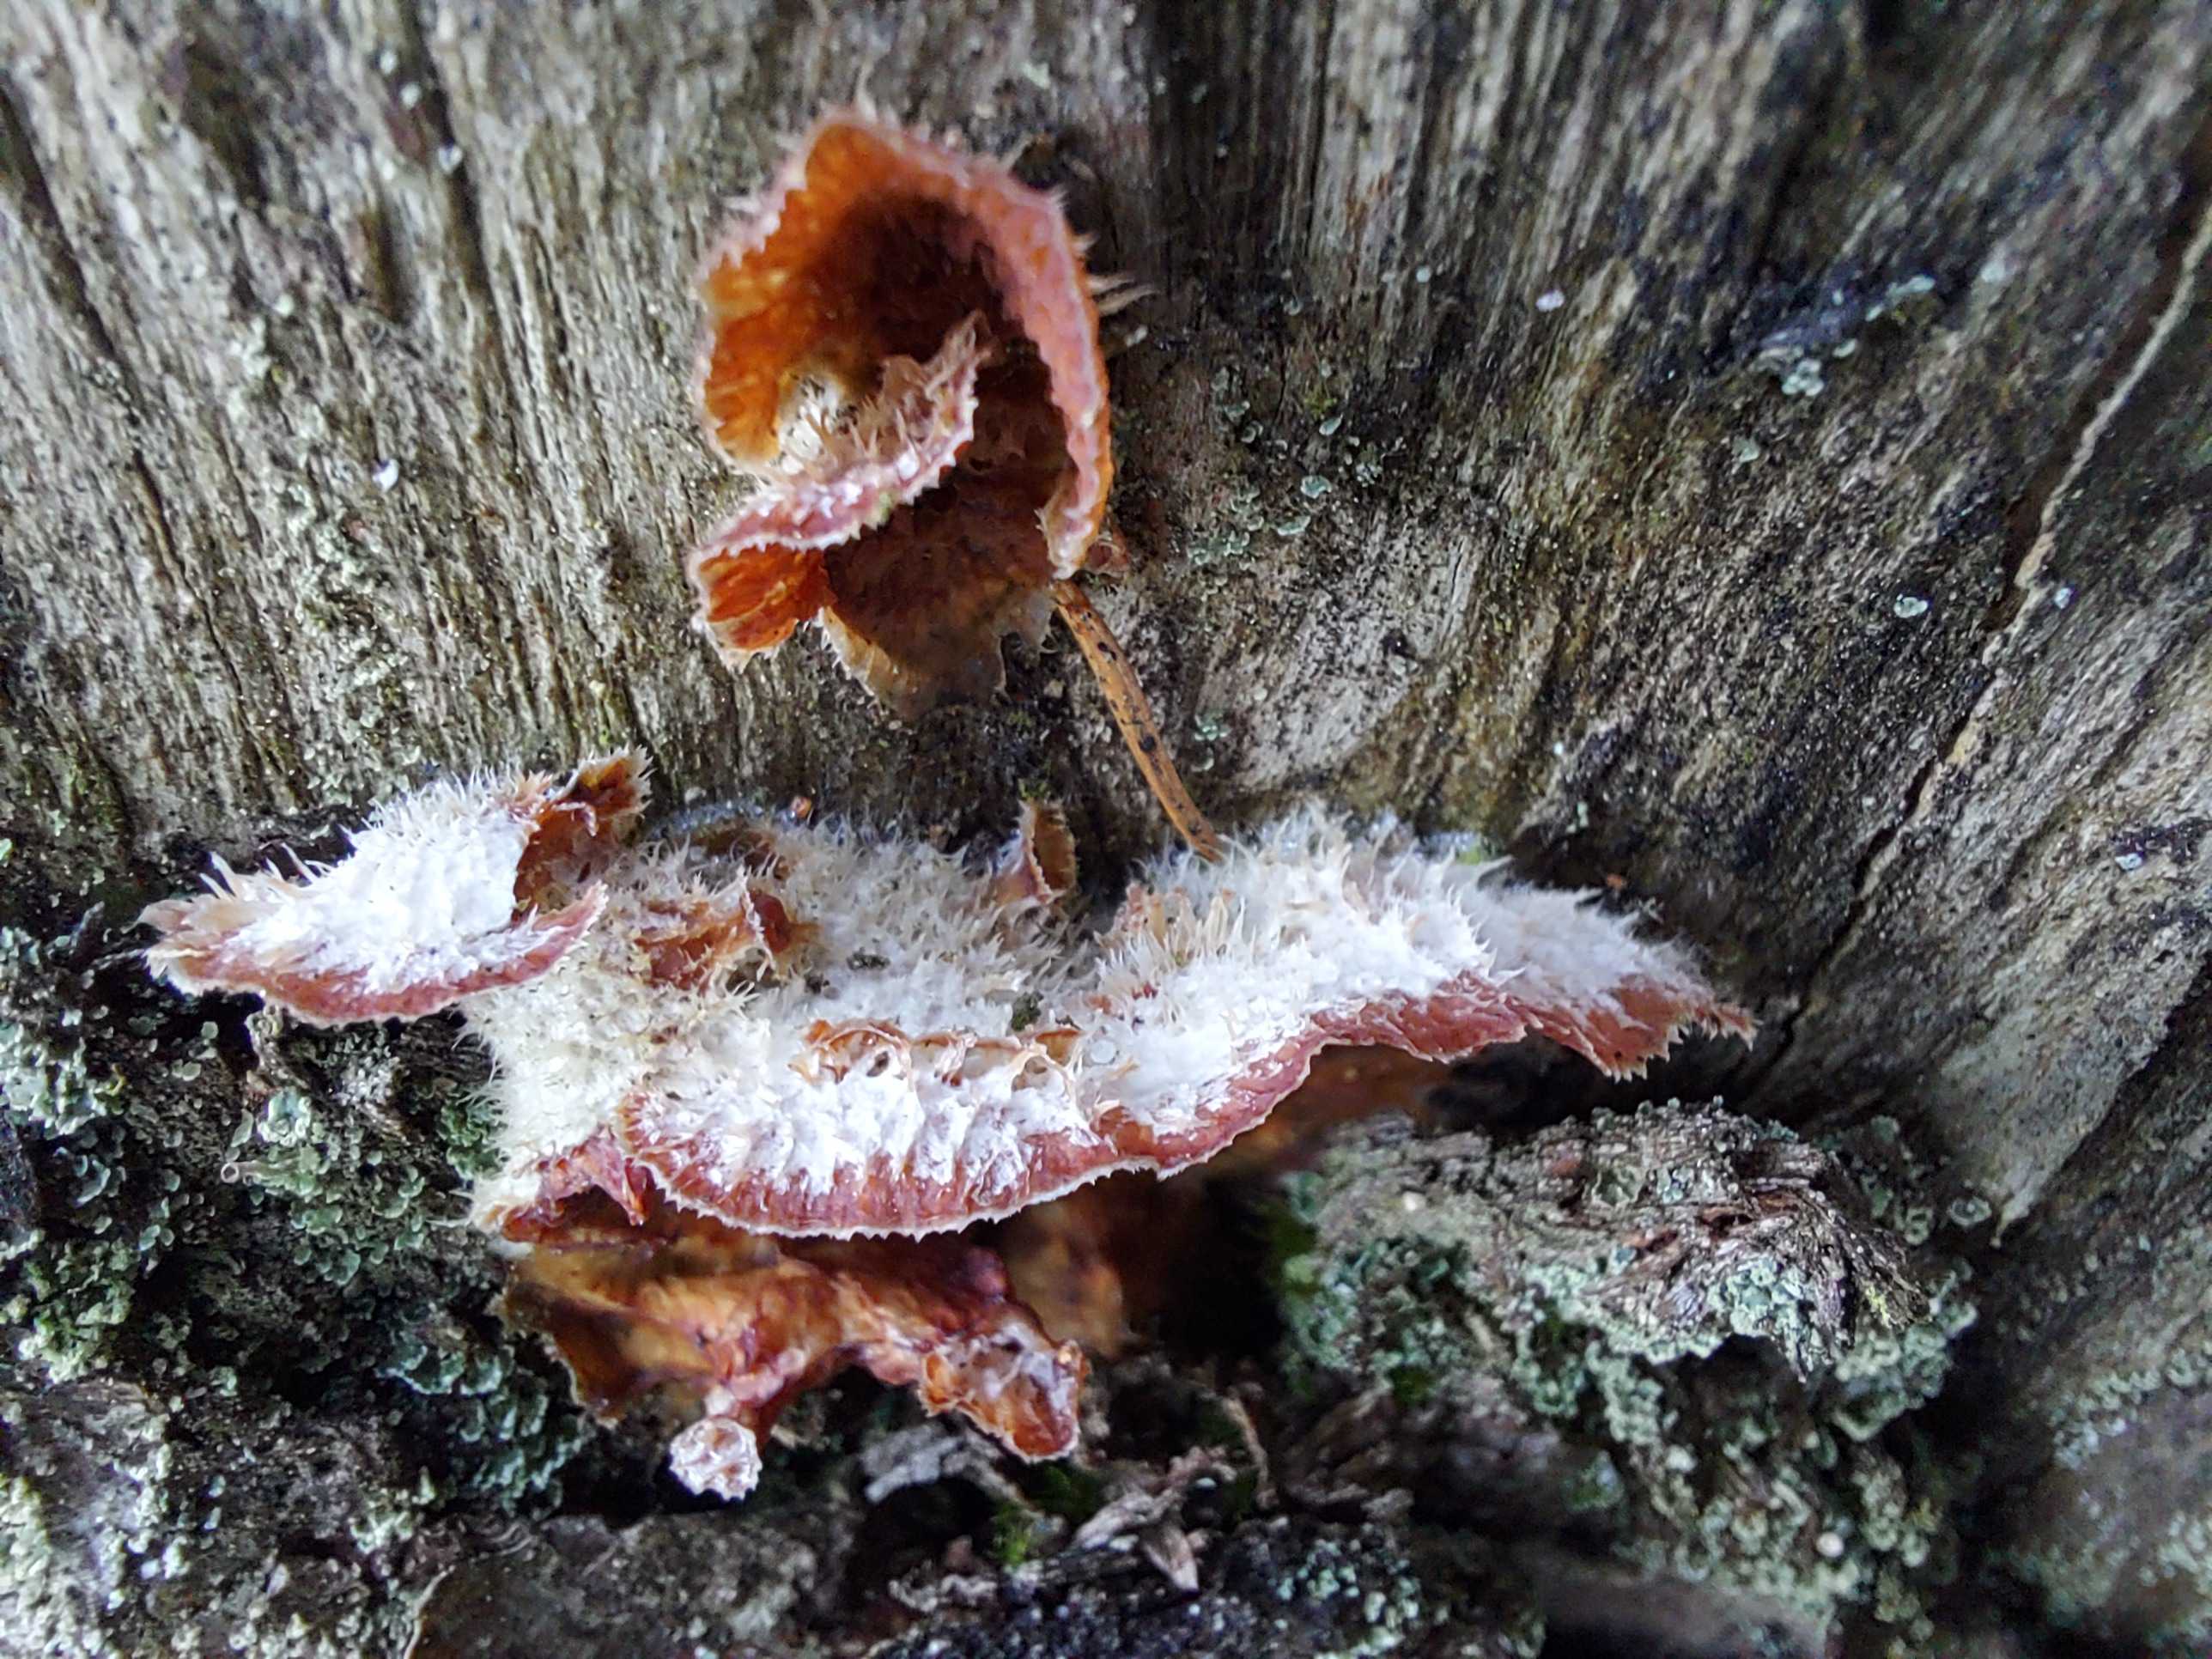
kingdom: Fungi
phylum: Basidiomycota
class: Agaricomycetes
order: Polyporales
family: Meruliaceae
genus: Phlebia
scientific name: Phlebia tremellosa
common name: bævrende åresvamp
